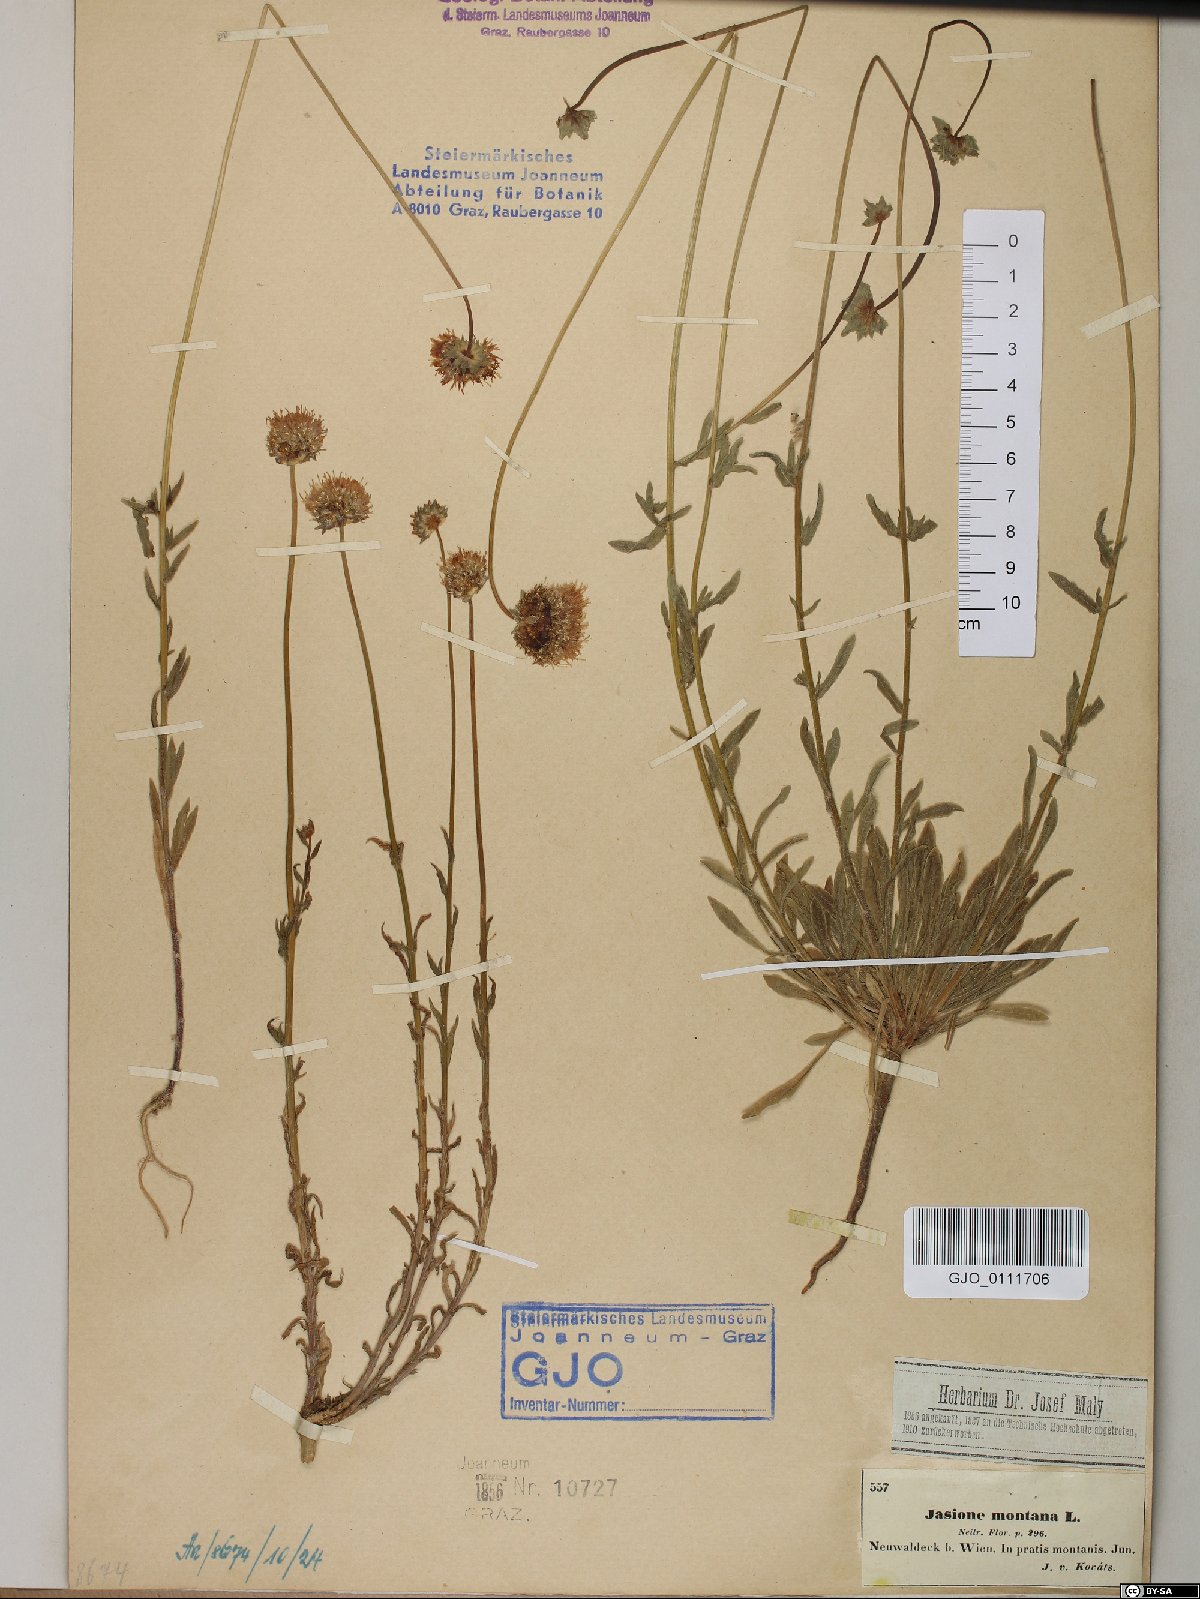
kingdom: Plantae
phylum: Tracheophyta
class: Magnoliopsida
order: Asterales
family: Campanulaceae
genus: Jasione
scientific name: Jasione montana
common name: Sheep's-bit
